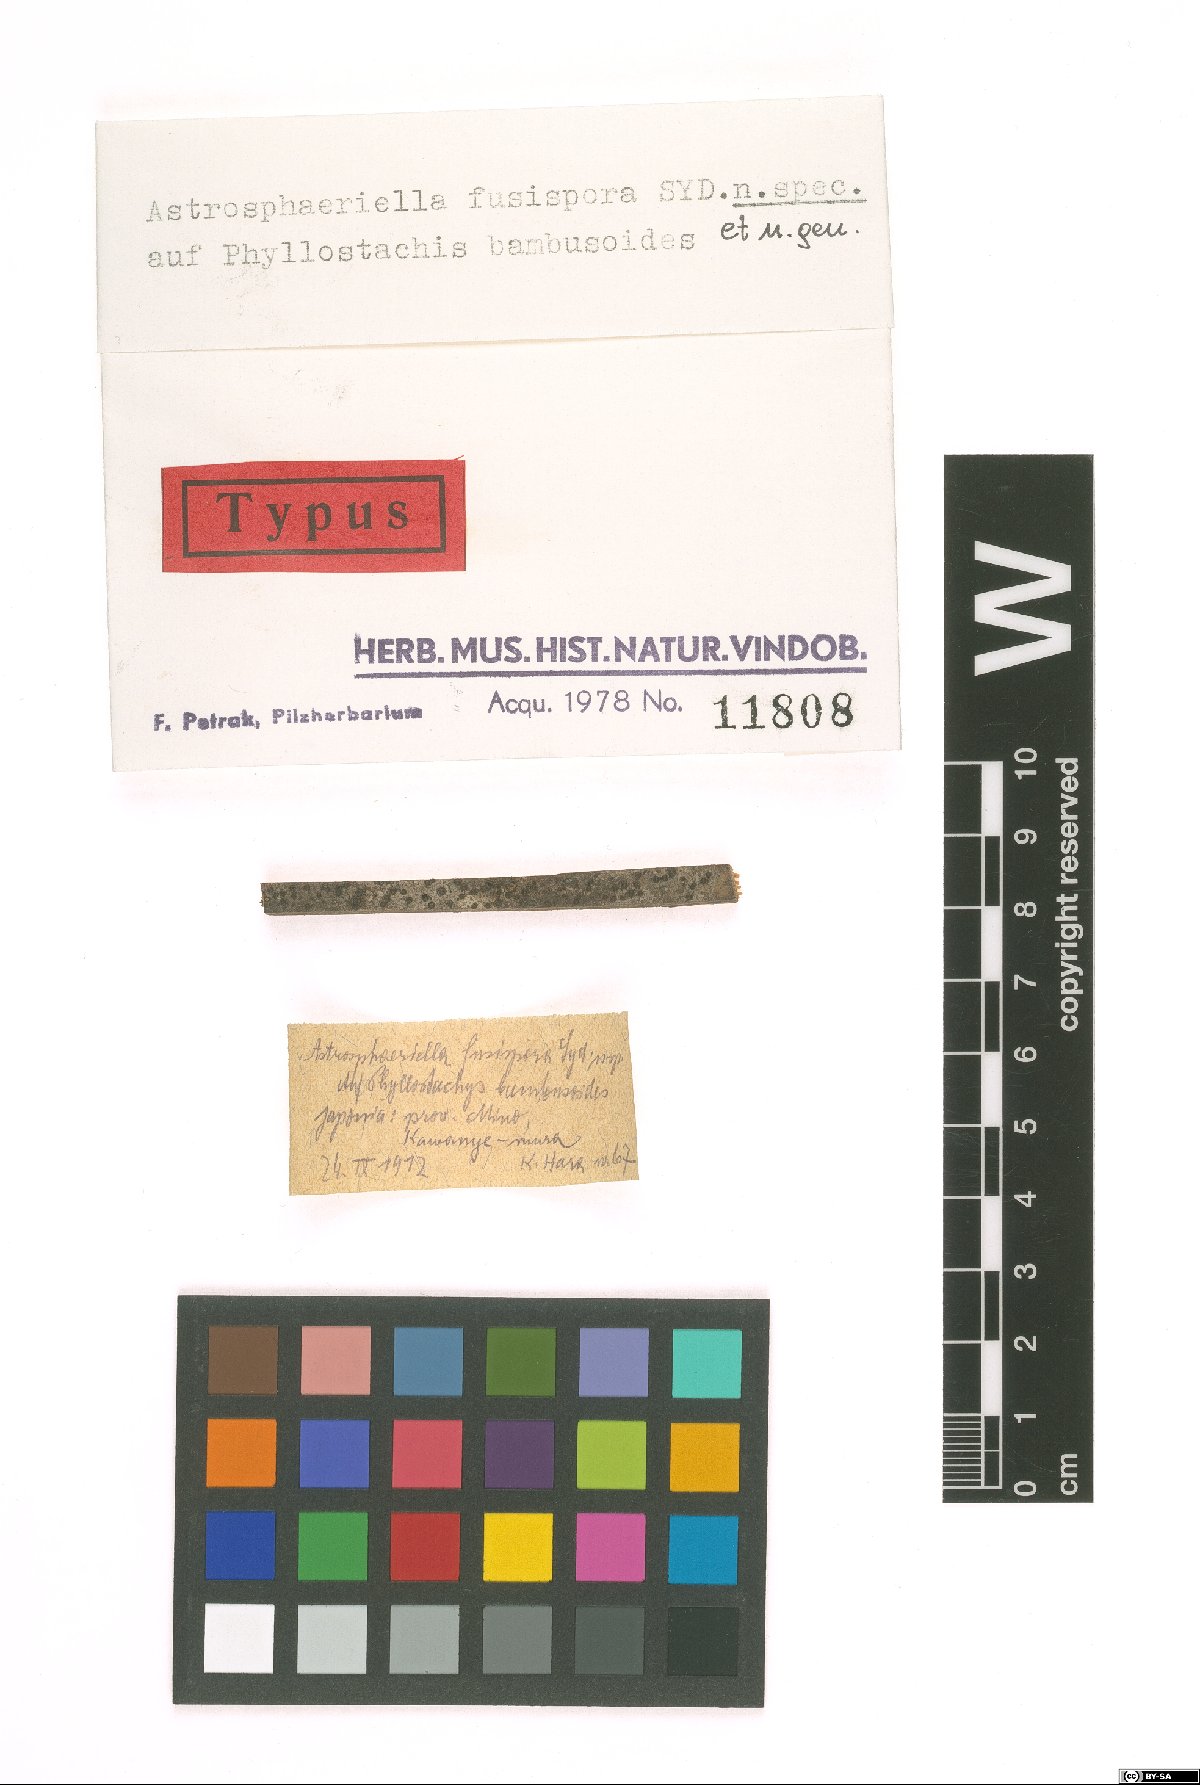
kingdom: Fungi
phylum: Ascomycota
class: Dothideomycetes
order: Pleosporales
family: Astrosphaeriellaceae
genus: Astrosphaeriella
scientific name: Astrosphaeriella fusispora
